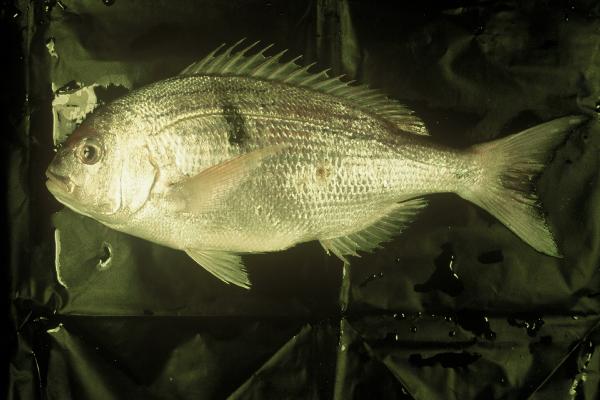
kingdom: Animalia
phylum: Chordata
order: Perciformes
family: Sparidae
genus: Polysteganus
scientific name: Polysteganus undulosus
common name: Seventy-four seabream
